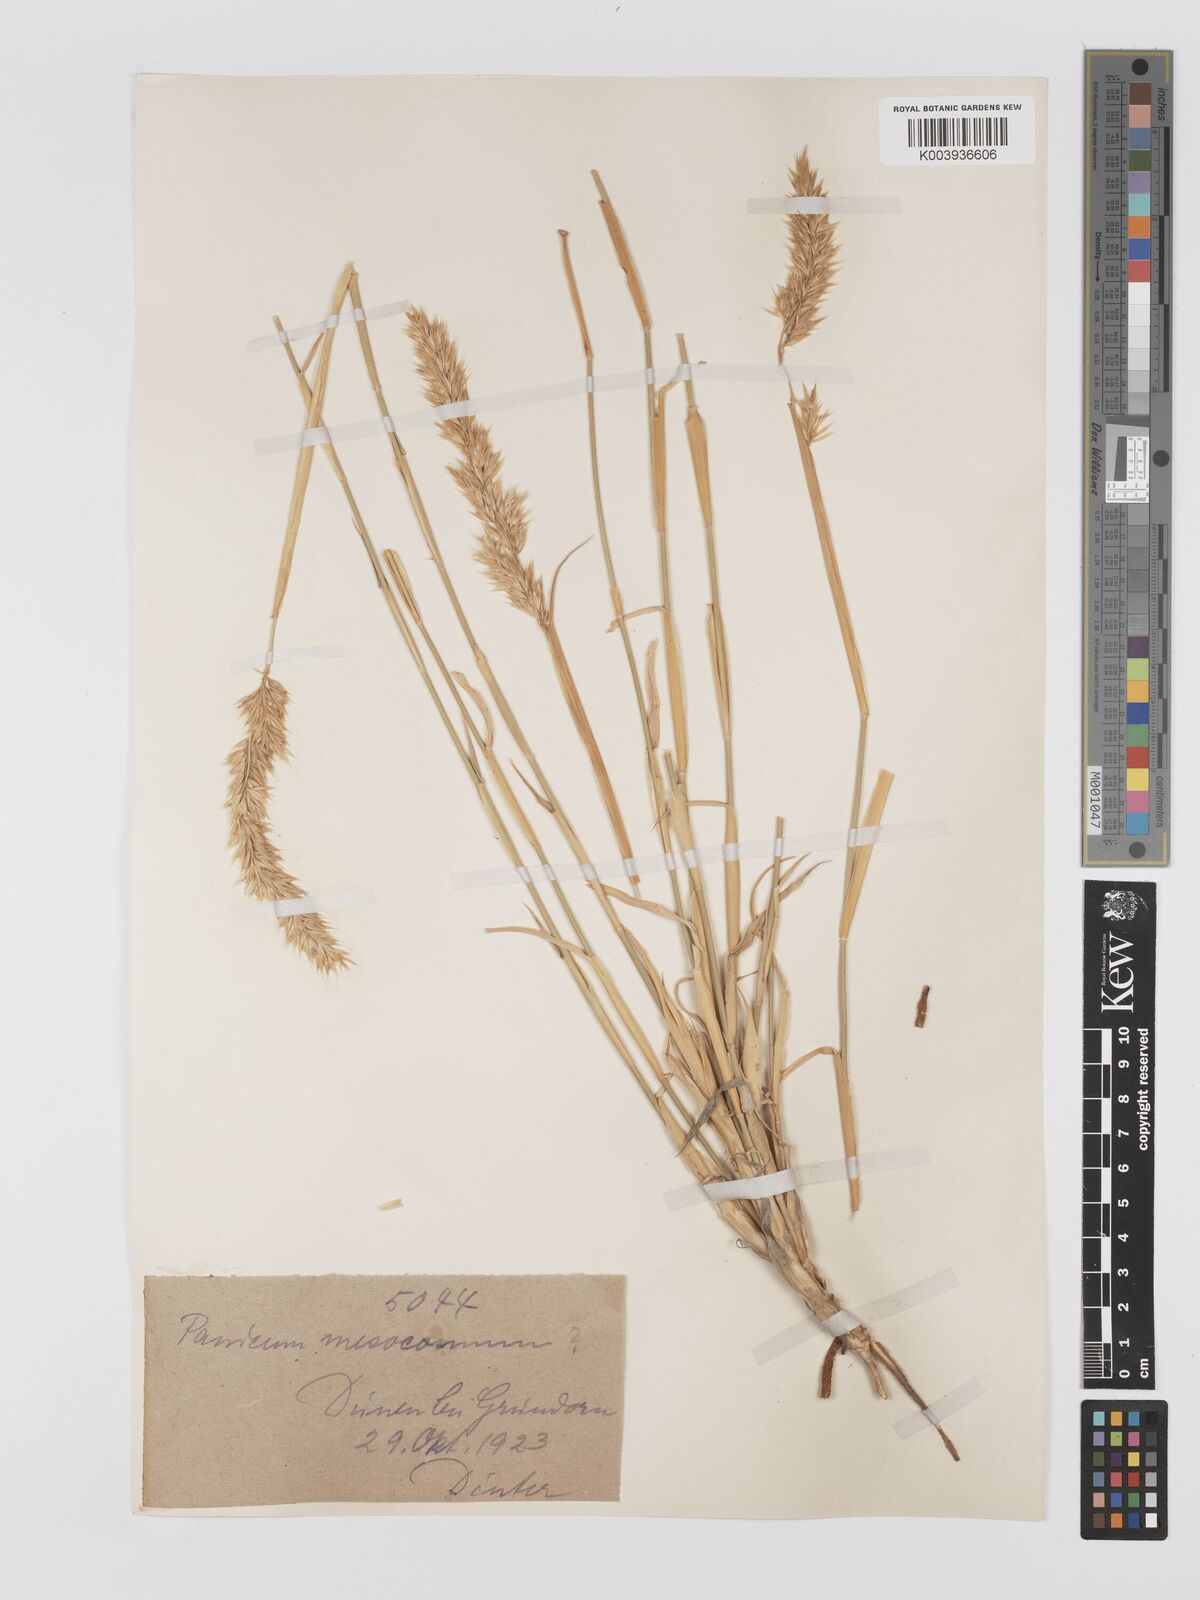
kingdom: Plantae
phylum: Tracheophyta
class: Liliopsida
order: Poales
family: Poaceae
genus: Centropodia
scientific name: Centropodia glauca
